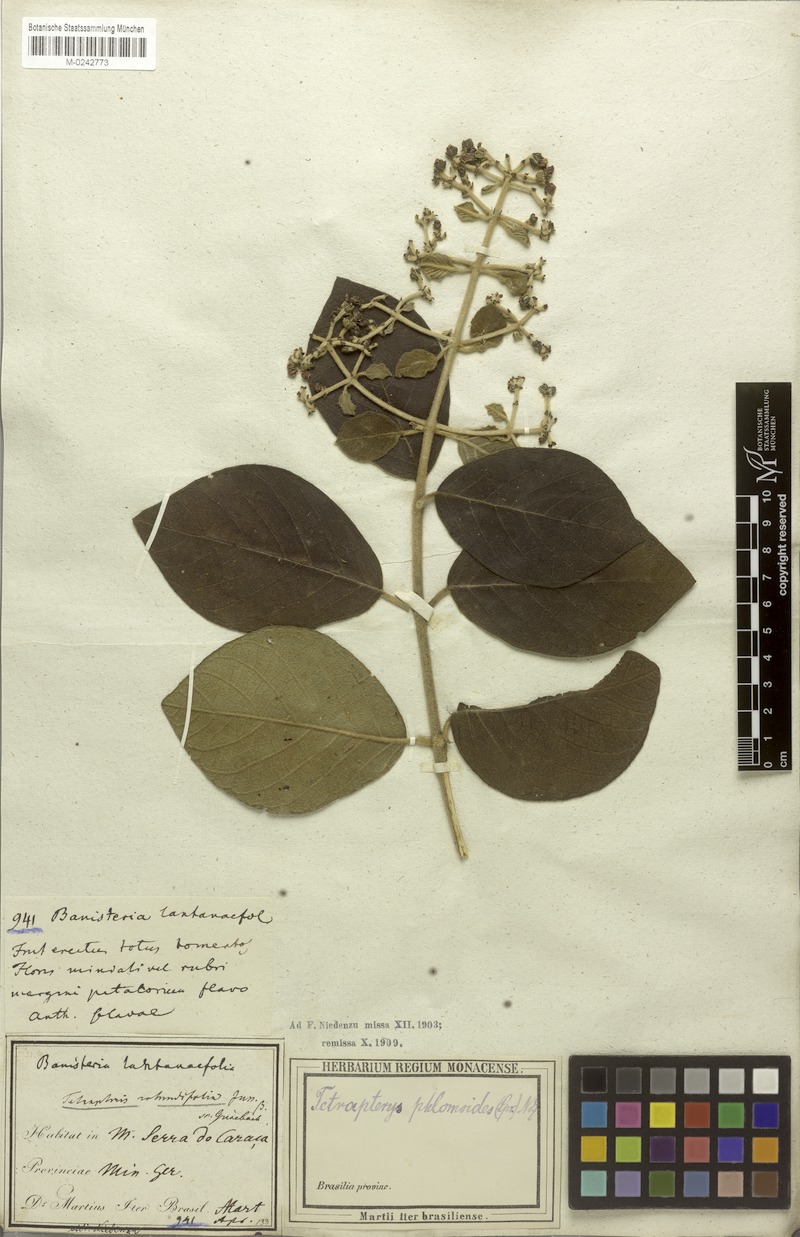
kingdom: Plantae
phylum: Tracheophyta
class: Magnoliopsida
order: Malpighiales
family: Malpighiaceae
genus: Tetrapterys
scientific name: Tetrapterys phlomoides
